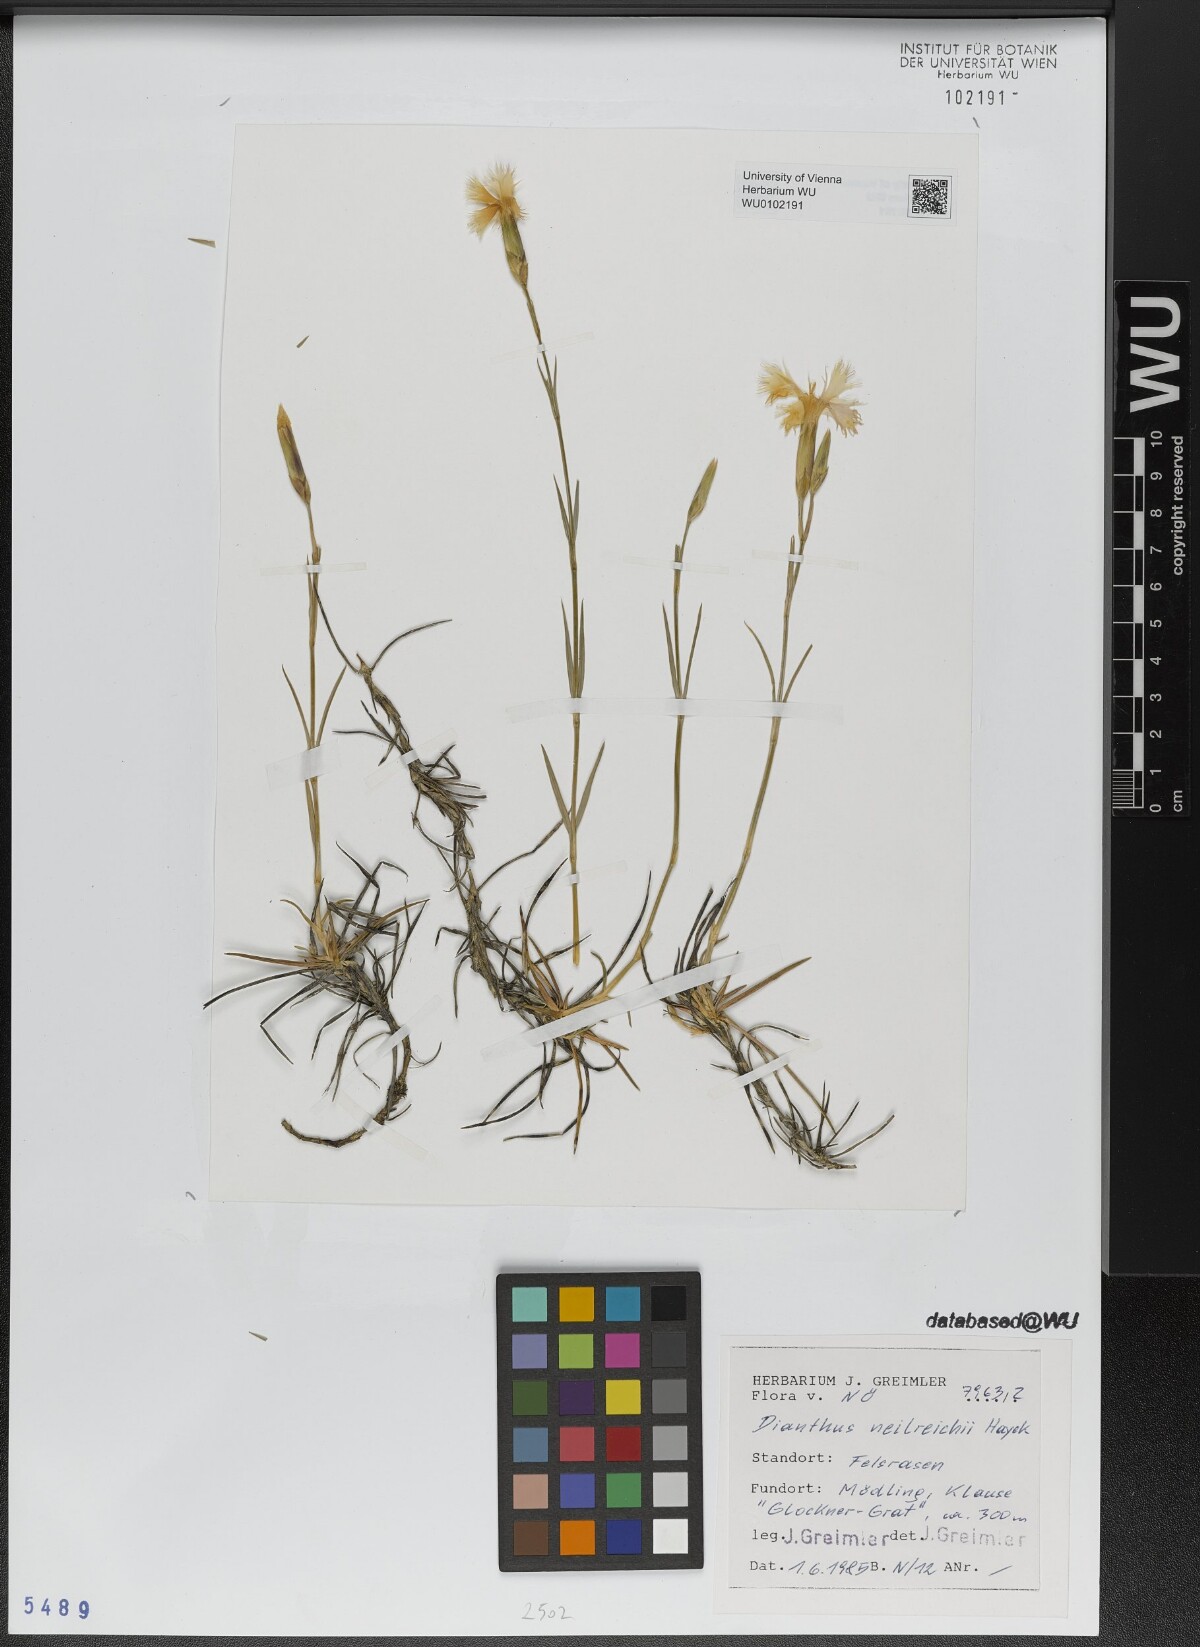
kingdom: Plantae
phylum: Tracheophyta
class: Magnoliopsida
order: Caryophyllales
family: Caryophyllaceae
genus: Dianthus
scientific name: Dianthus plumarius
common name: Pink
